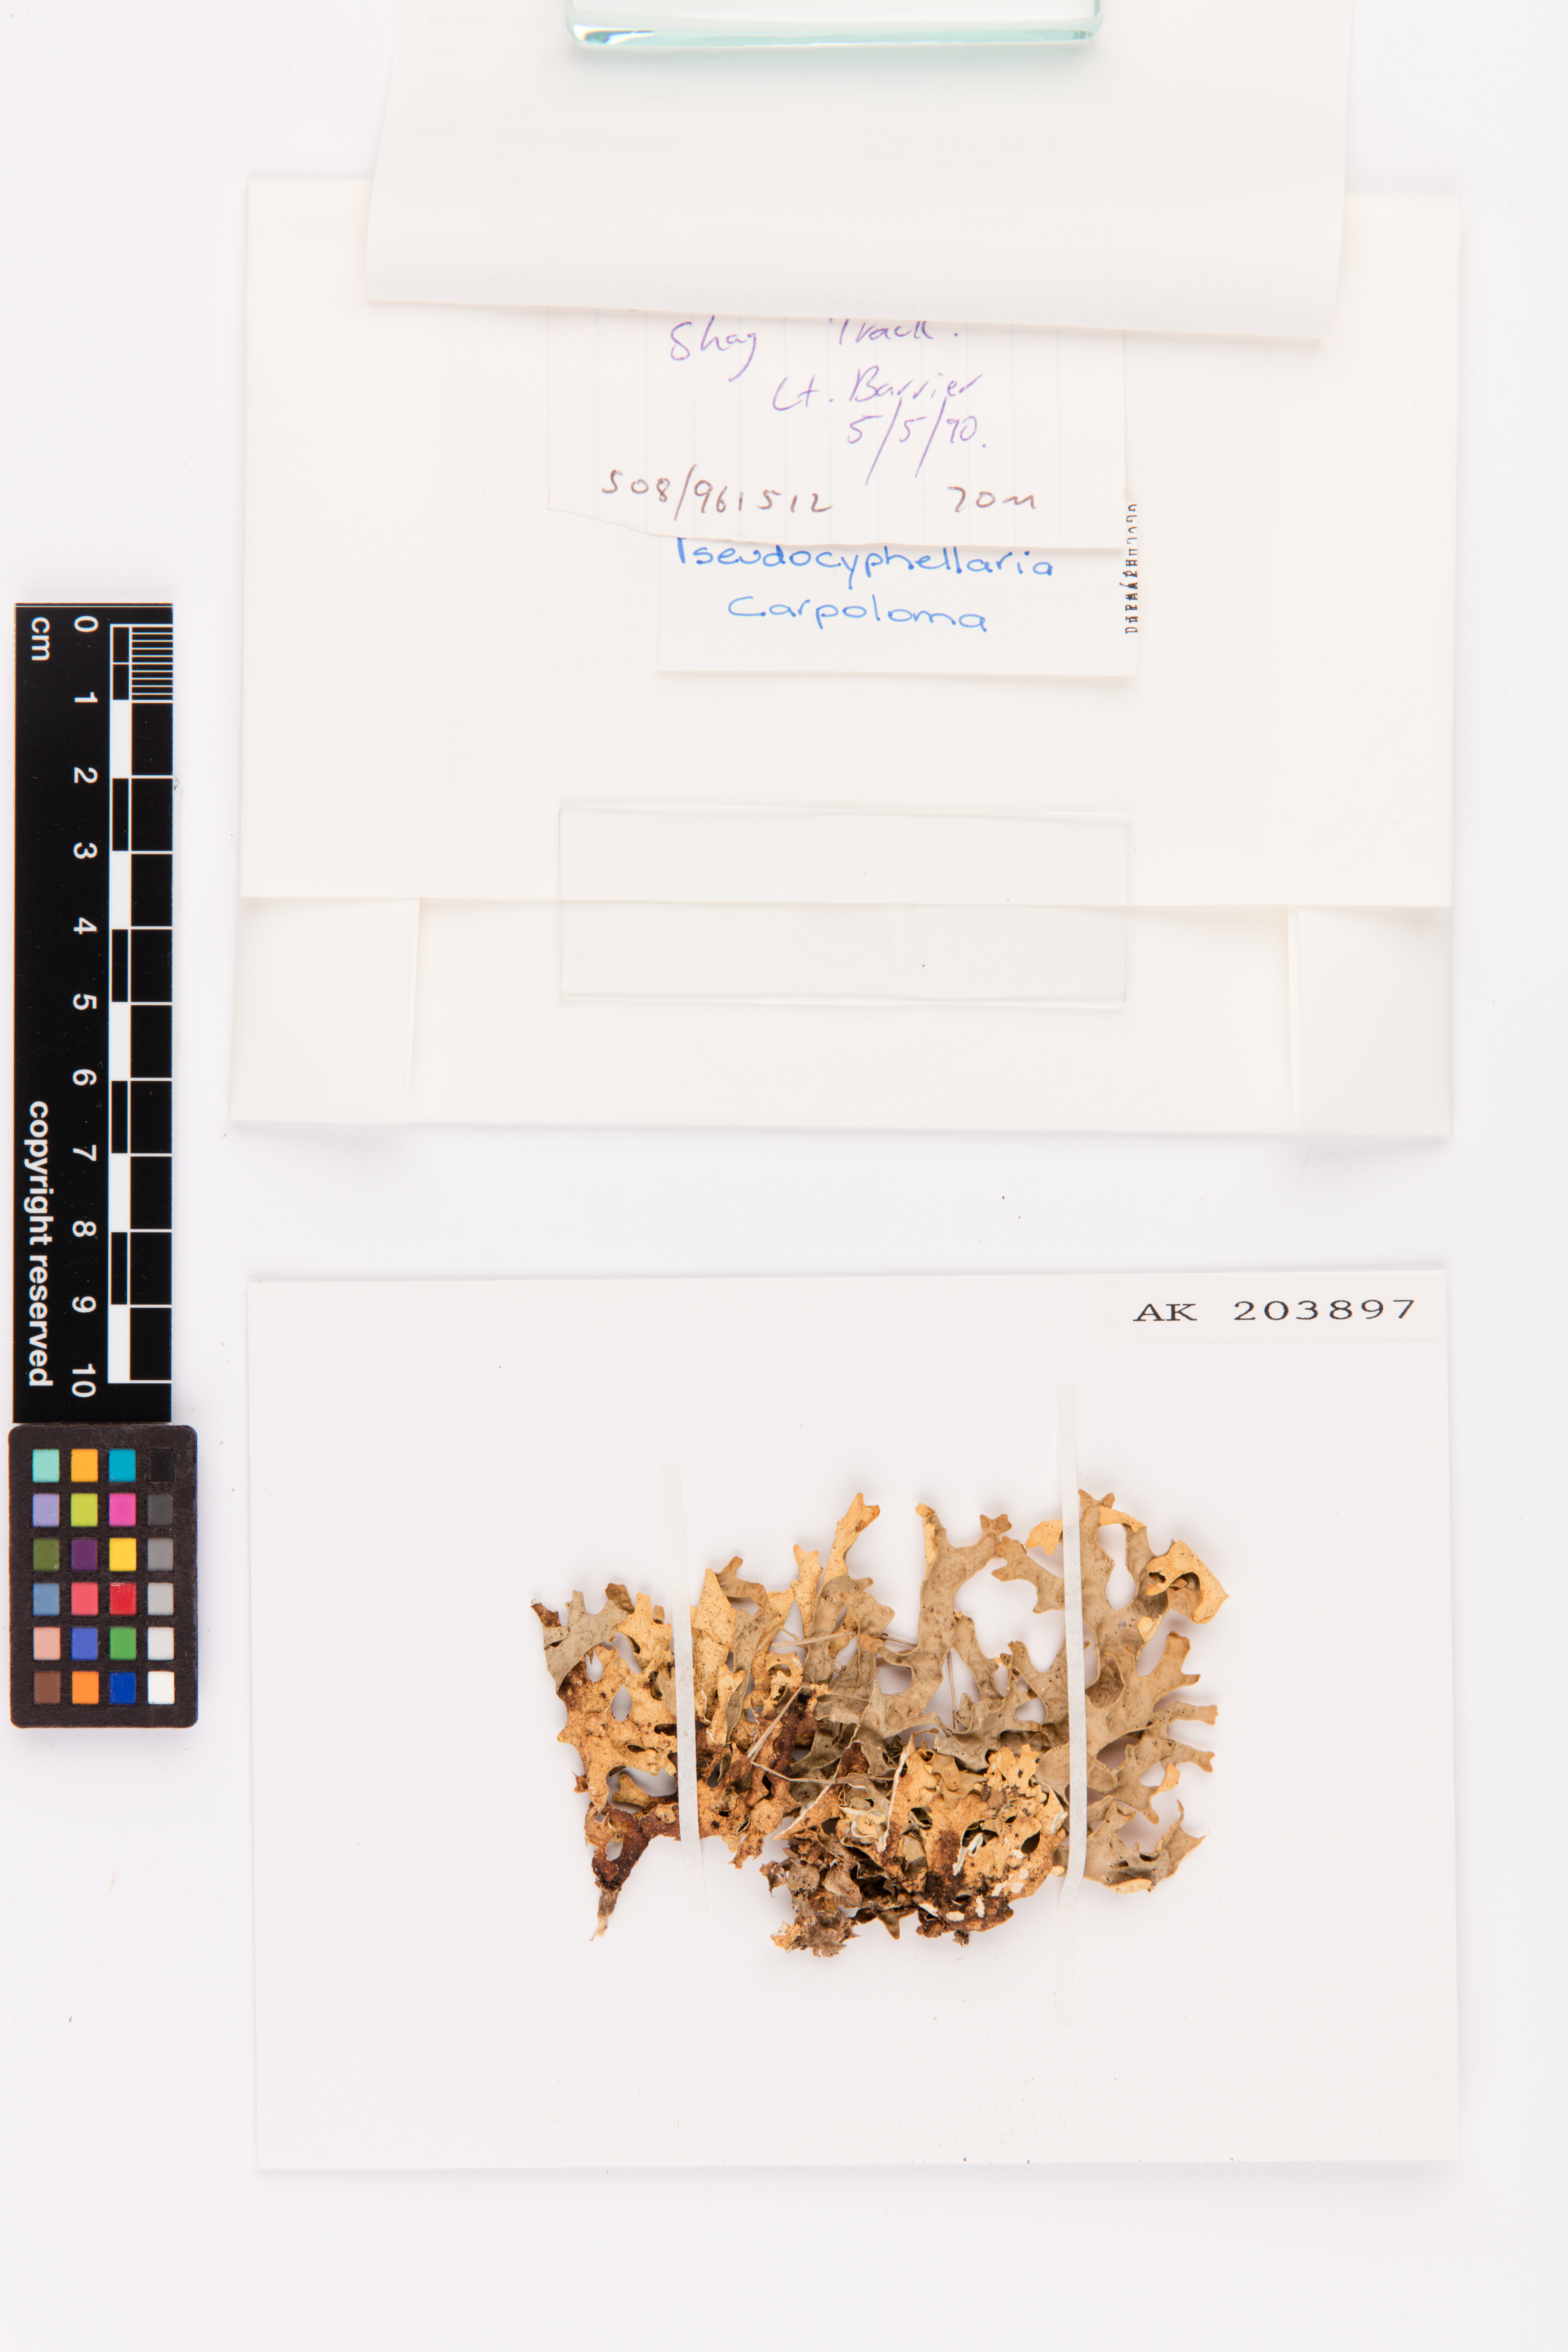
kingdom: Fungi
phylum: Ascomycota
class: Lecanoromycetes
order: Peltigerales
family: Lobariaceae
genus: Pseudocyphellaria
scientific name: Pseudocyphellaria carpoloma
